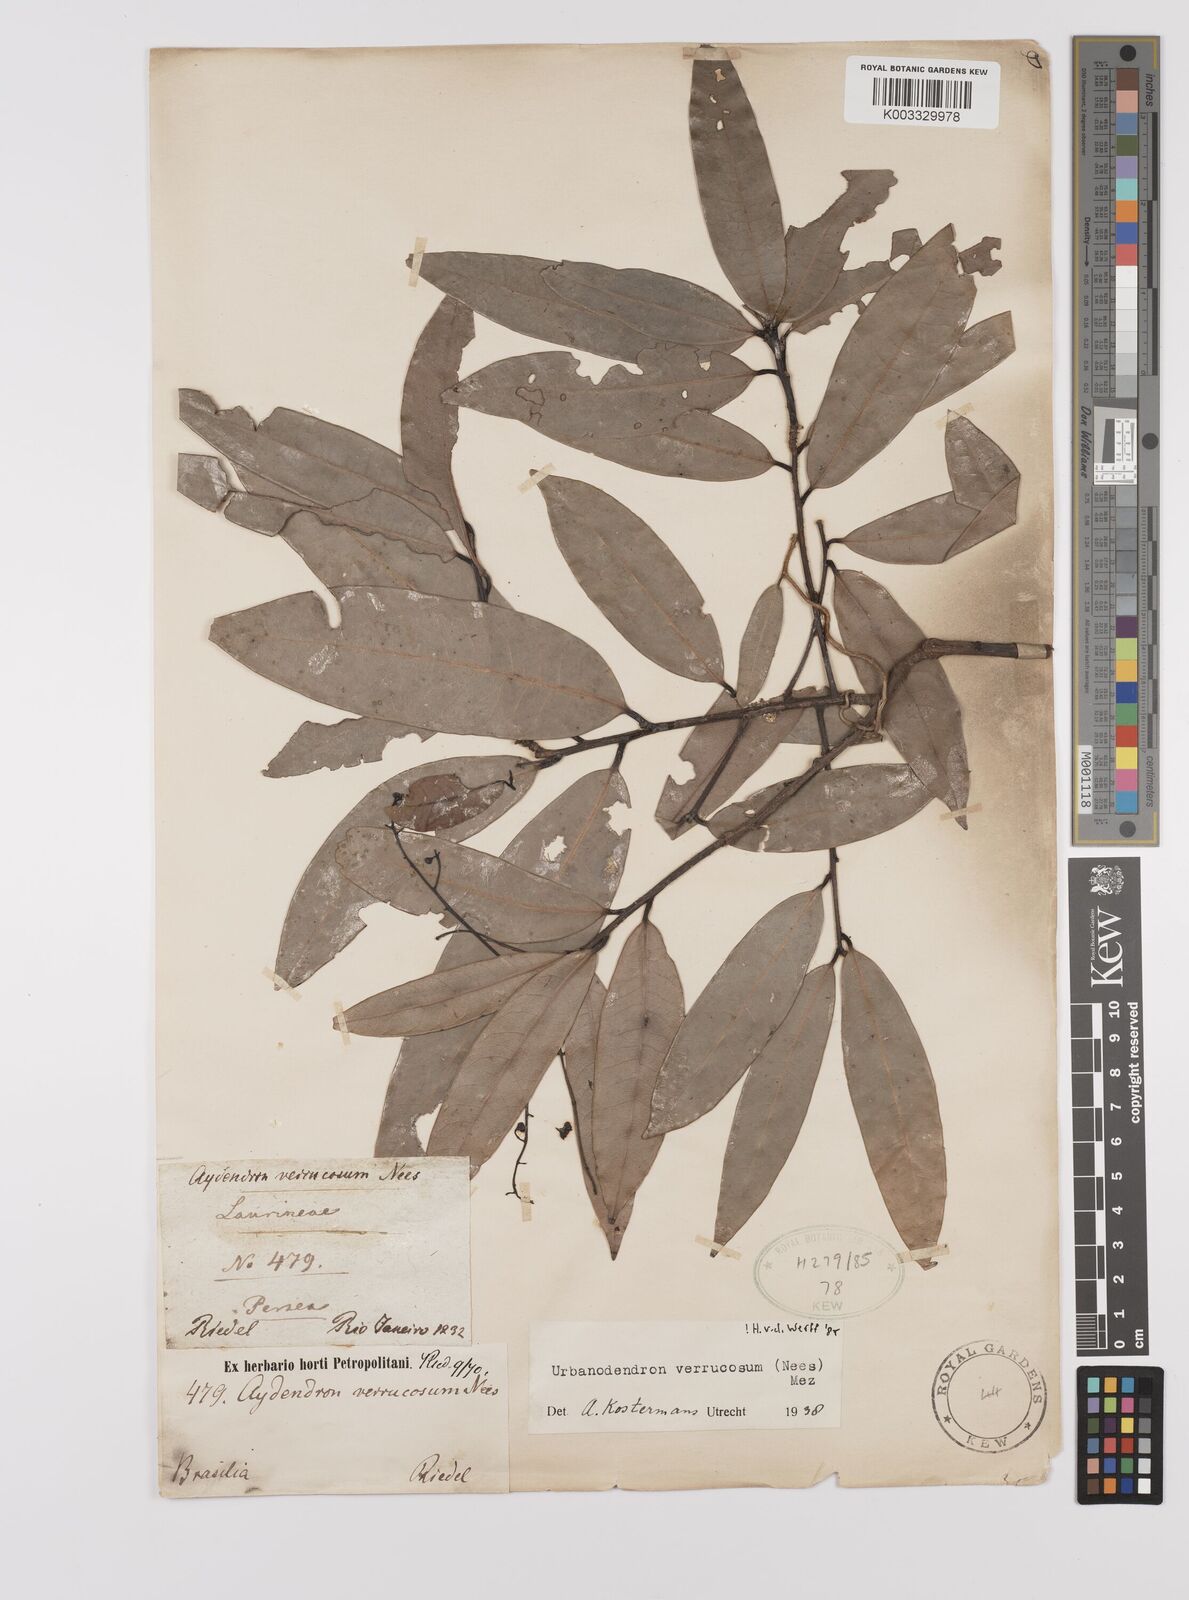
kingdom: Plantae
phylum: Tracheophyta
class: Magnoliopsida
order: Laurales
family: Lauraceae
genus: Urbanodendron
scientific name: Urbanodendron verrucosum
